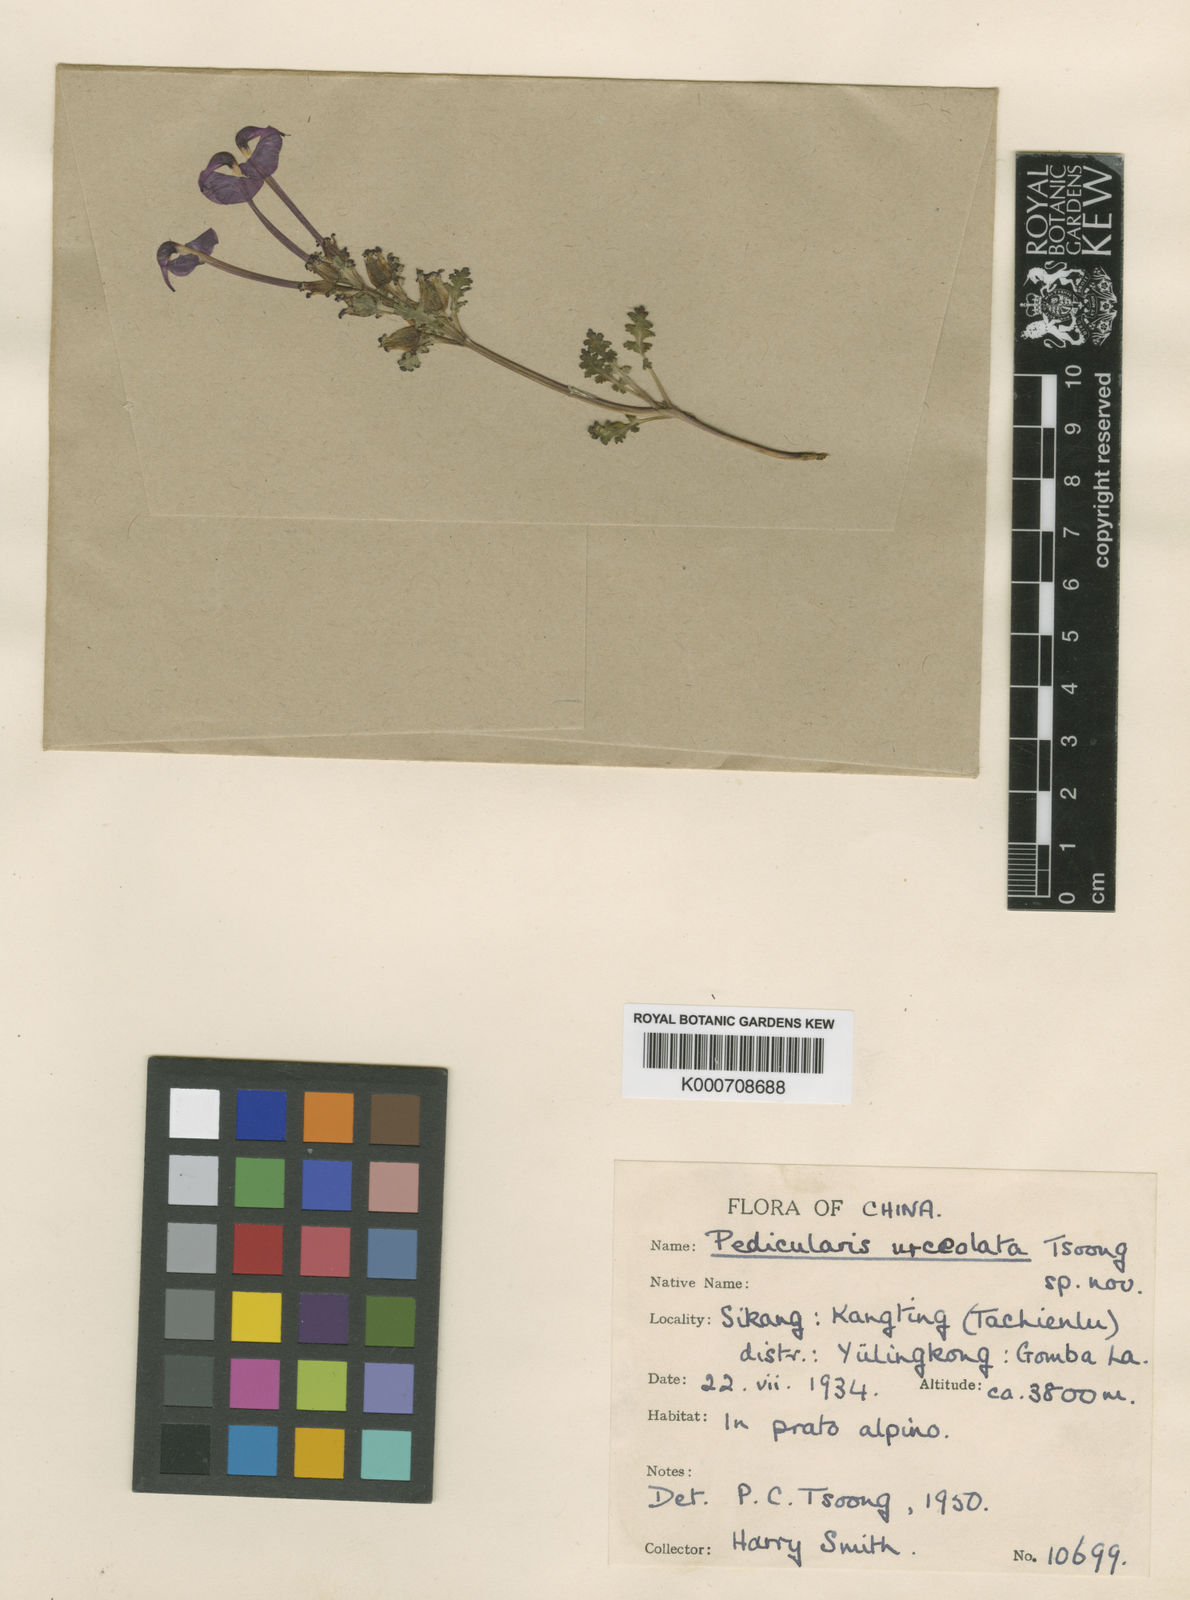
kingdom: Plantae
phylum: Tracheophyta
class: Magnoliopsida
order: Lamiales
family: Orobanchaceae
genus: Pedicularis
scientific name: Pedicularis
